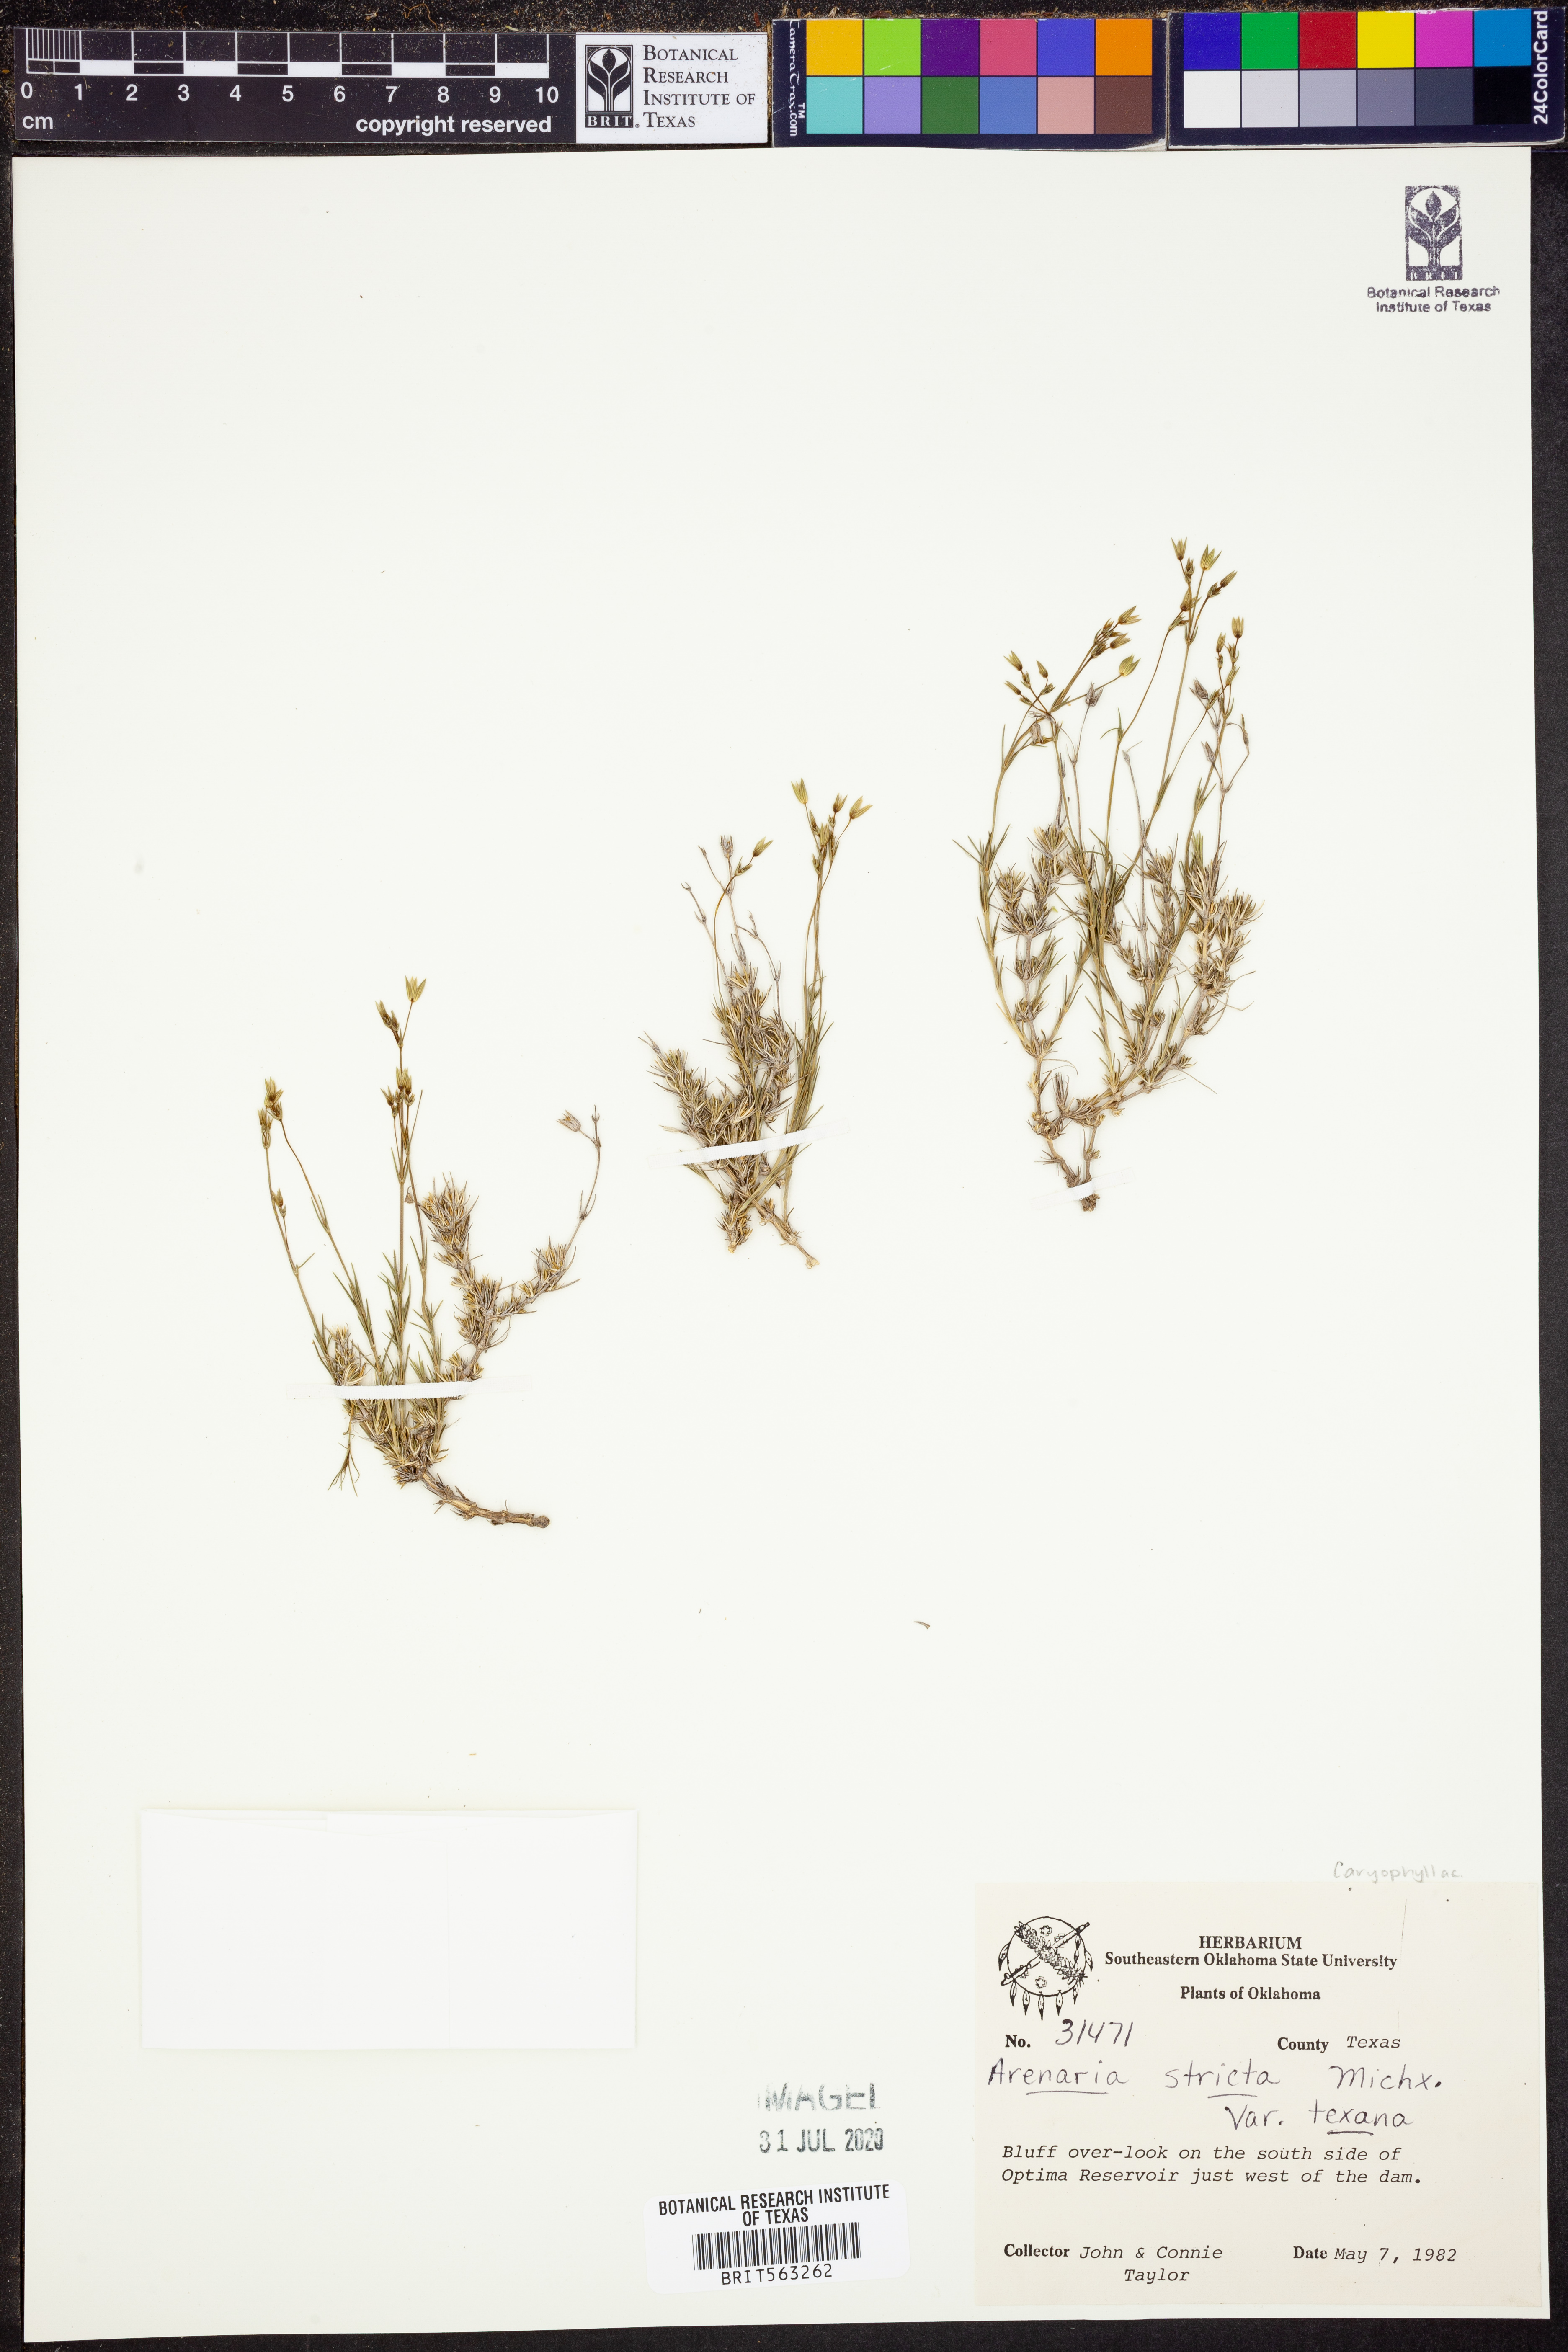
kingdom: Plantae
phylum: Tracheophyta
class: Magnoliopsida
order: Caryophyllales
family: Caryophyllaceae
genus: Sabulina
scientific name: Sabulina michauxii
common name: Michaux's stitchwort
